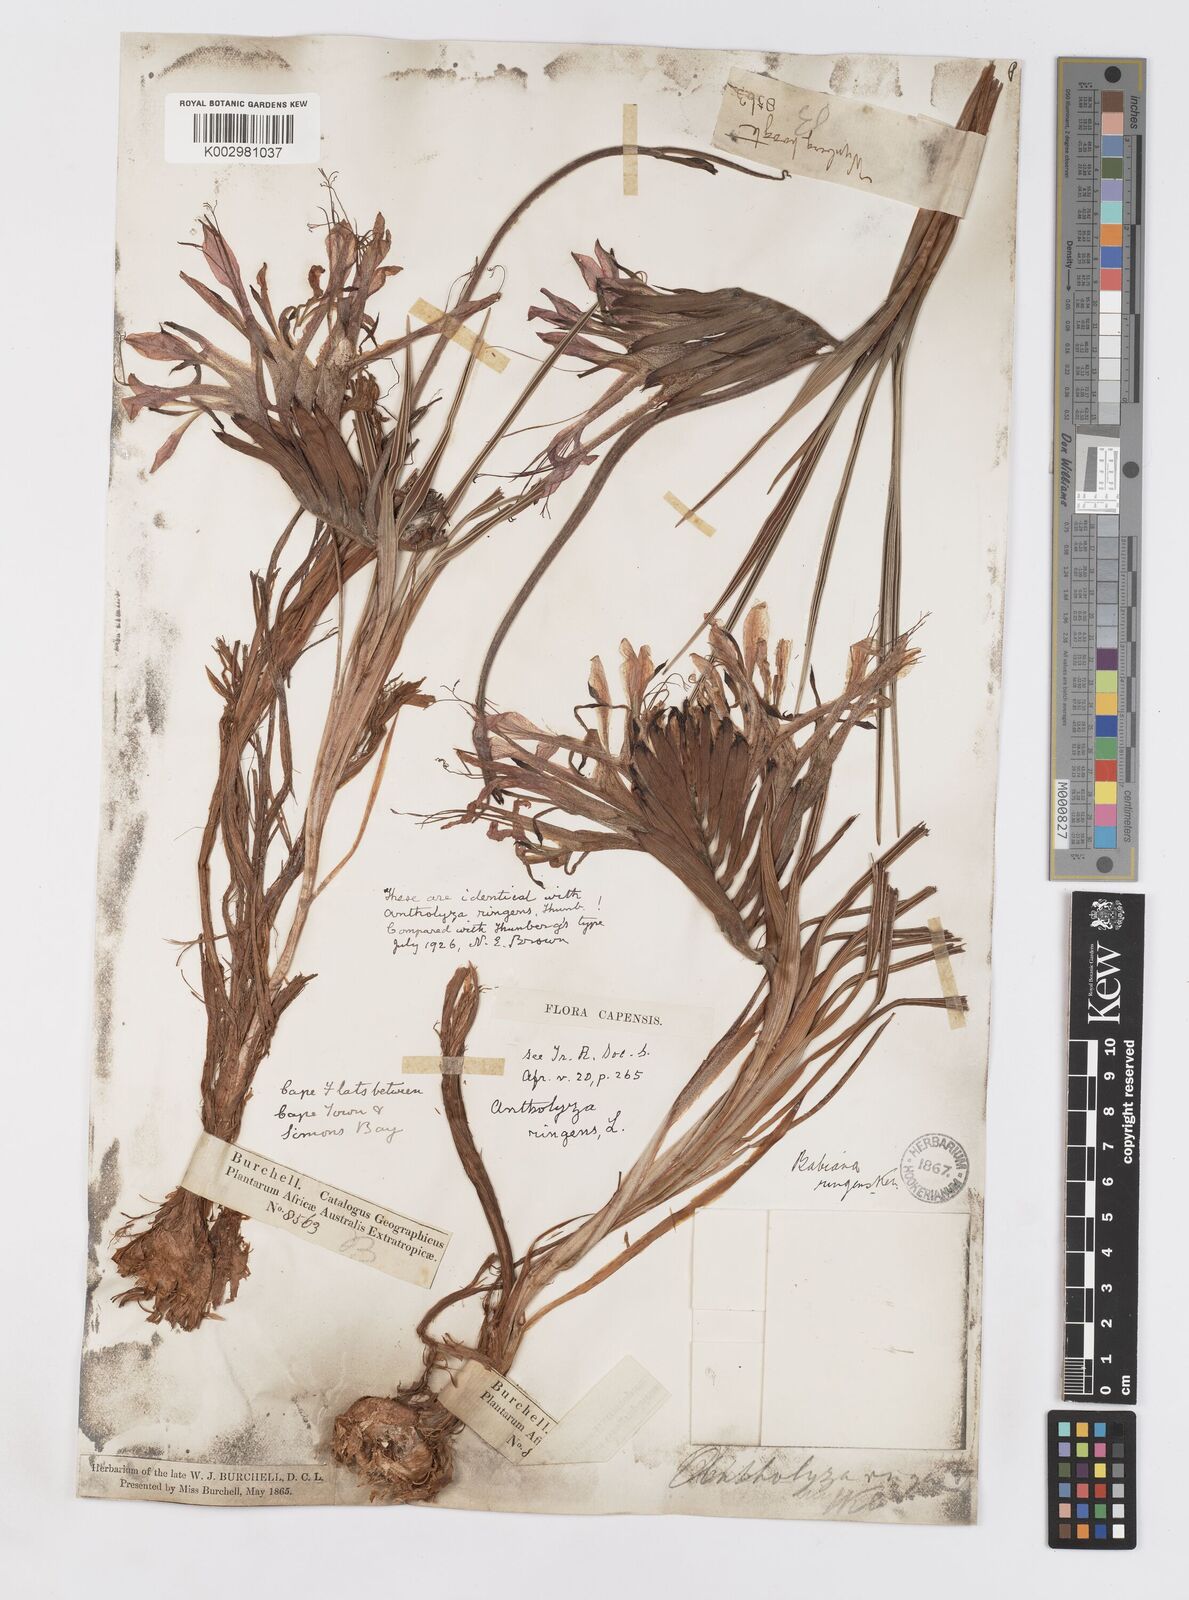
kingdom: Plantae
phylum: Tracheophyta
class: Liliopsida
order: Asparagales
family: Iridaceae
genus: Babiana
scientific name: Babiana ringens
